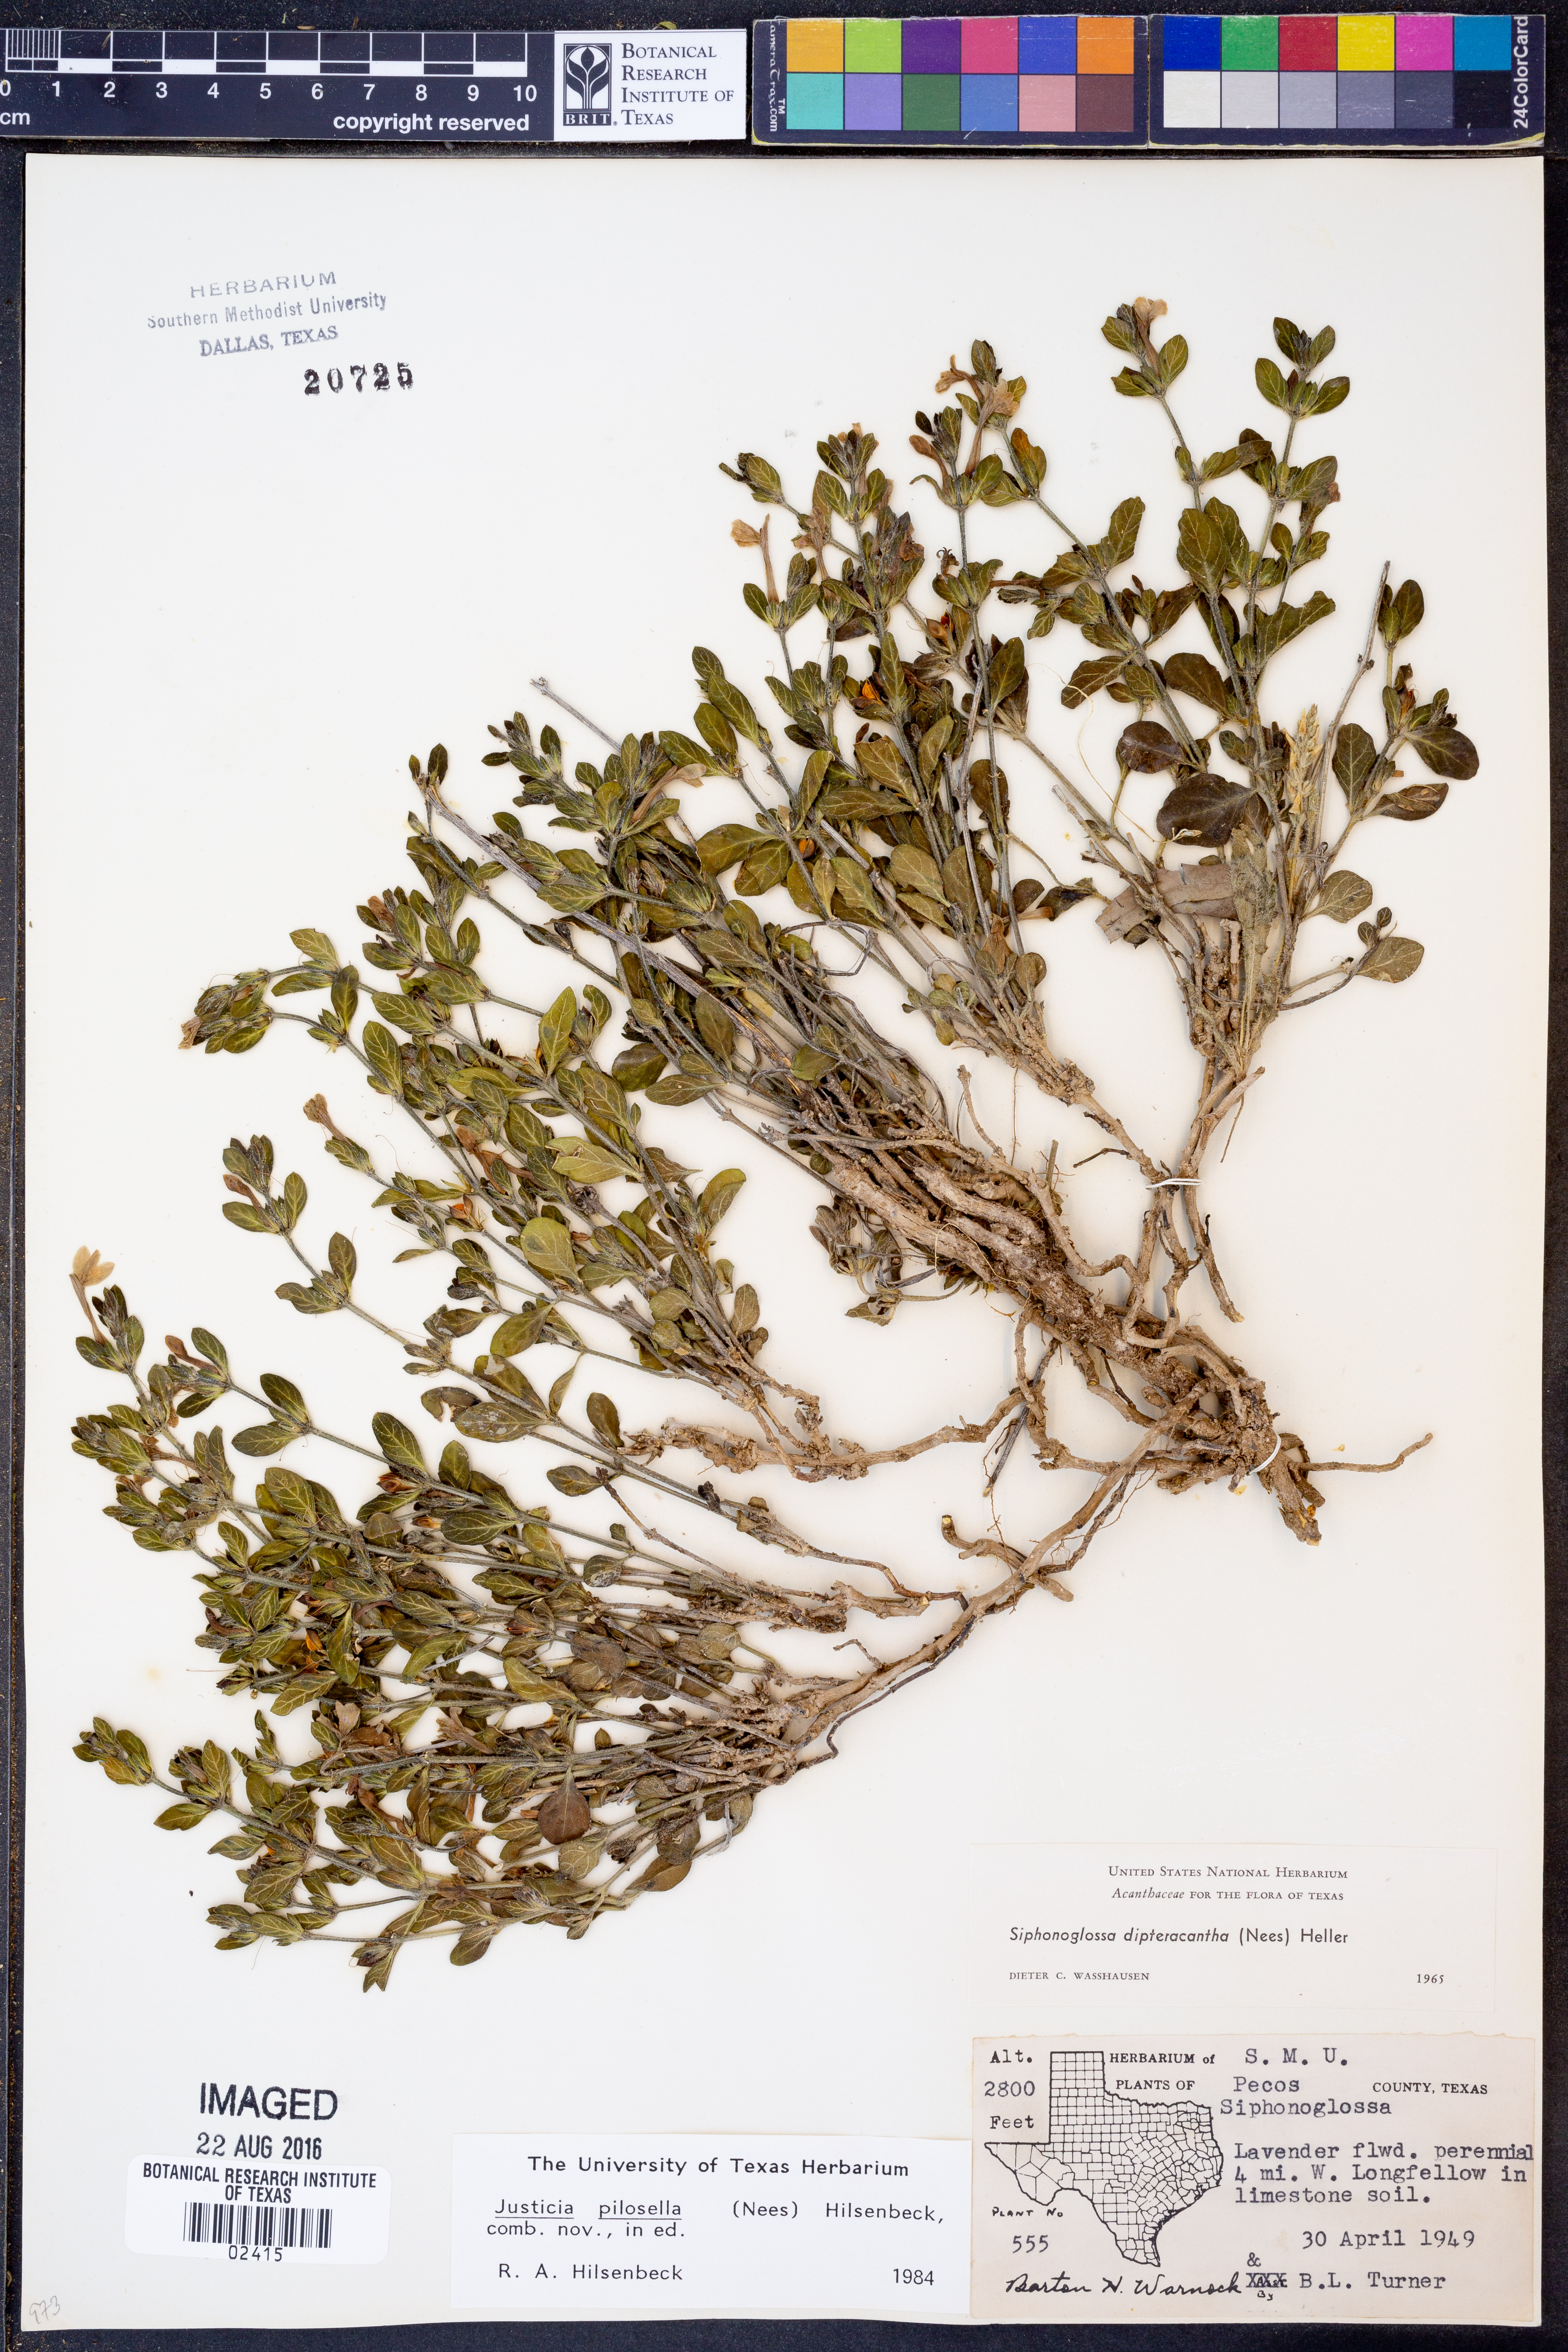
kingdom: Plantae
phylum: Tracheophyta
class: Magnoliopsida
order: Lamiales
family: Acanthaceae
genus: Justicia
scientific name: Justicia pilosella
